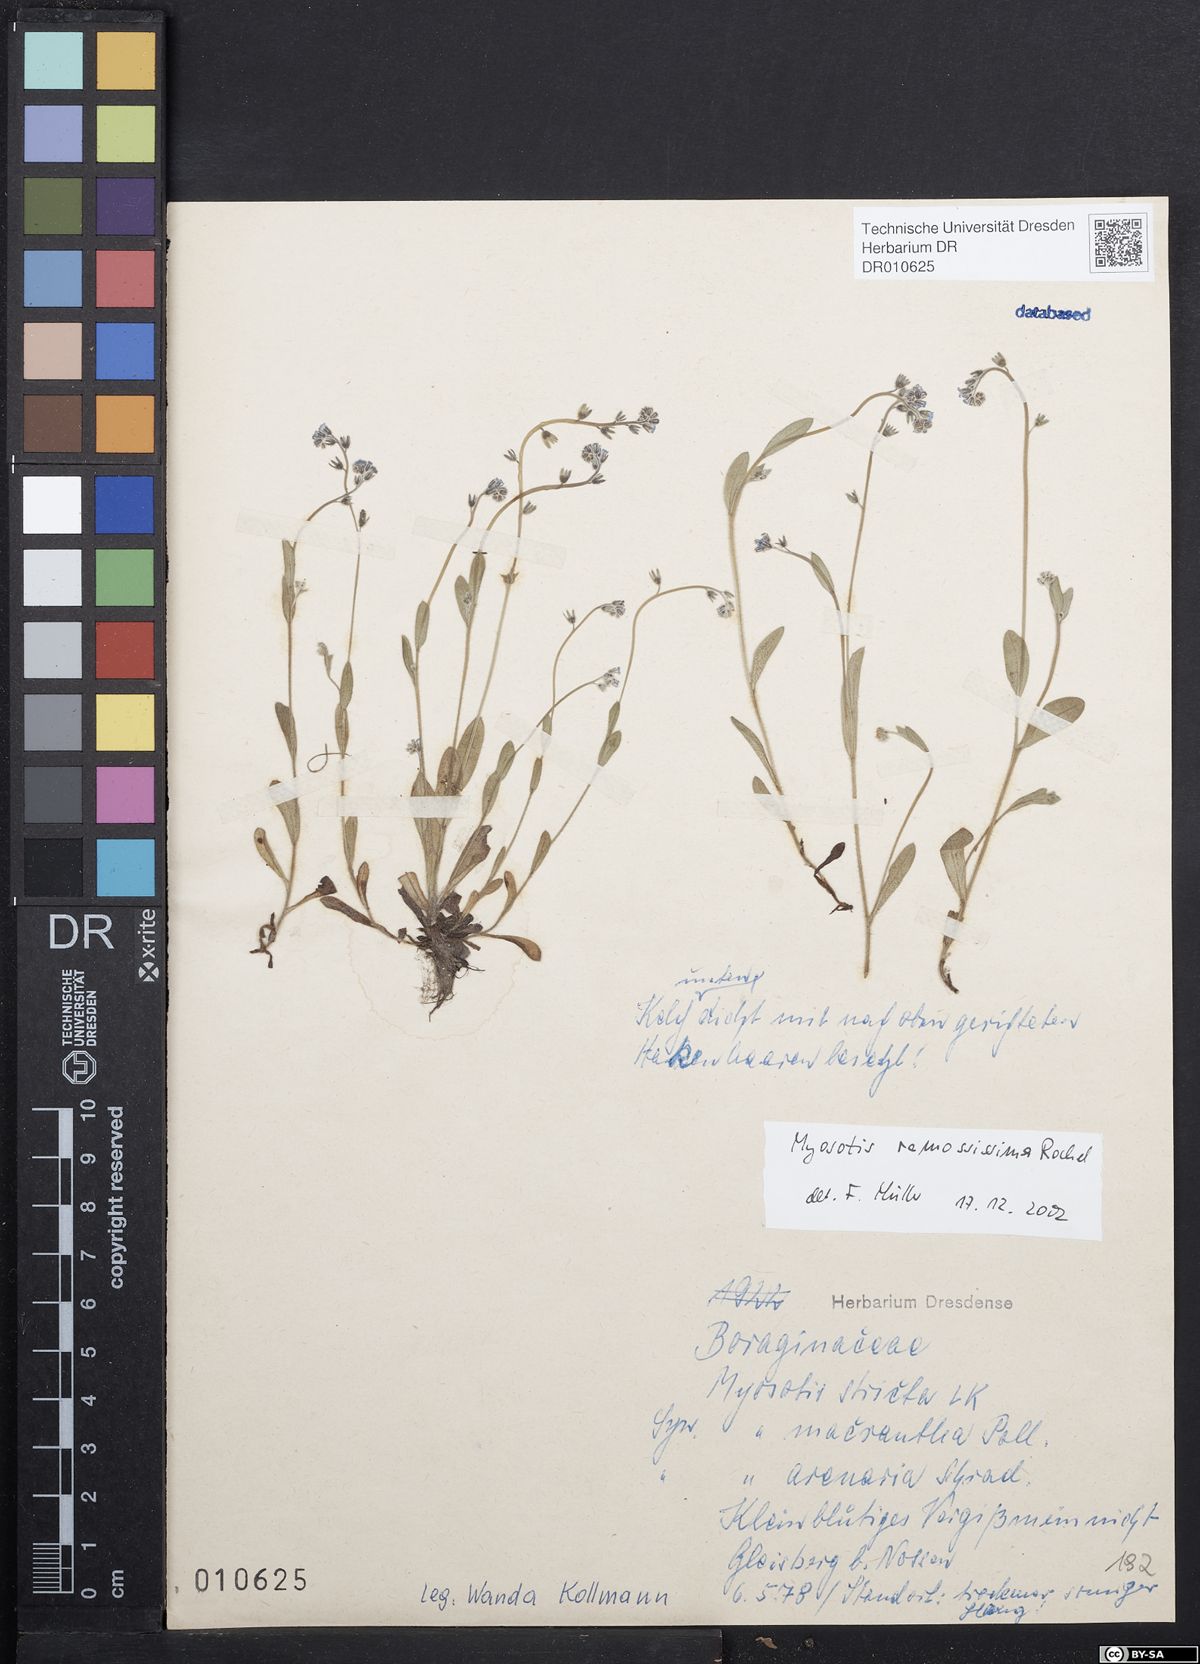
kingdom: Plantae
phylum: Tracheophyta
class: Magnoliopsida
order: Boraginales
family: Boraginaceae
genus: Myosotis
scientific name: Myosotis ramosissima
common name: Early forget-me-not
